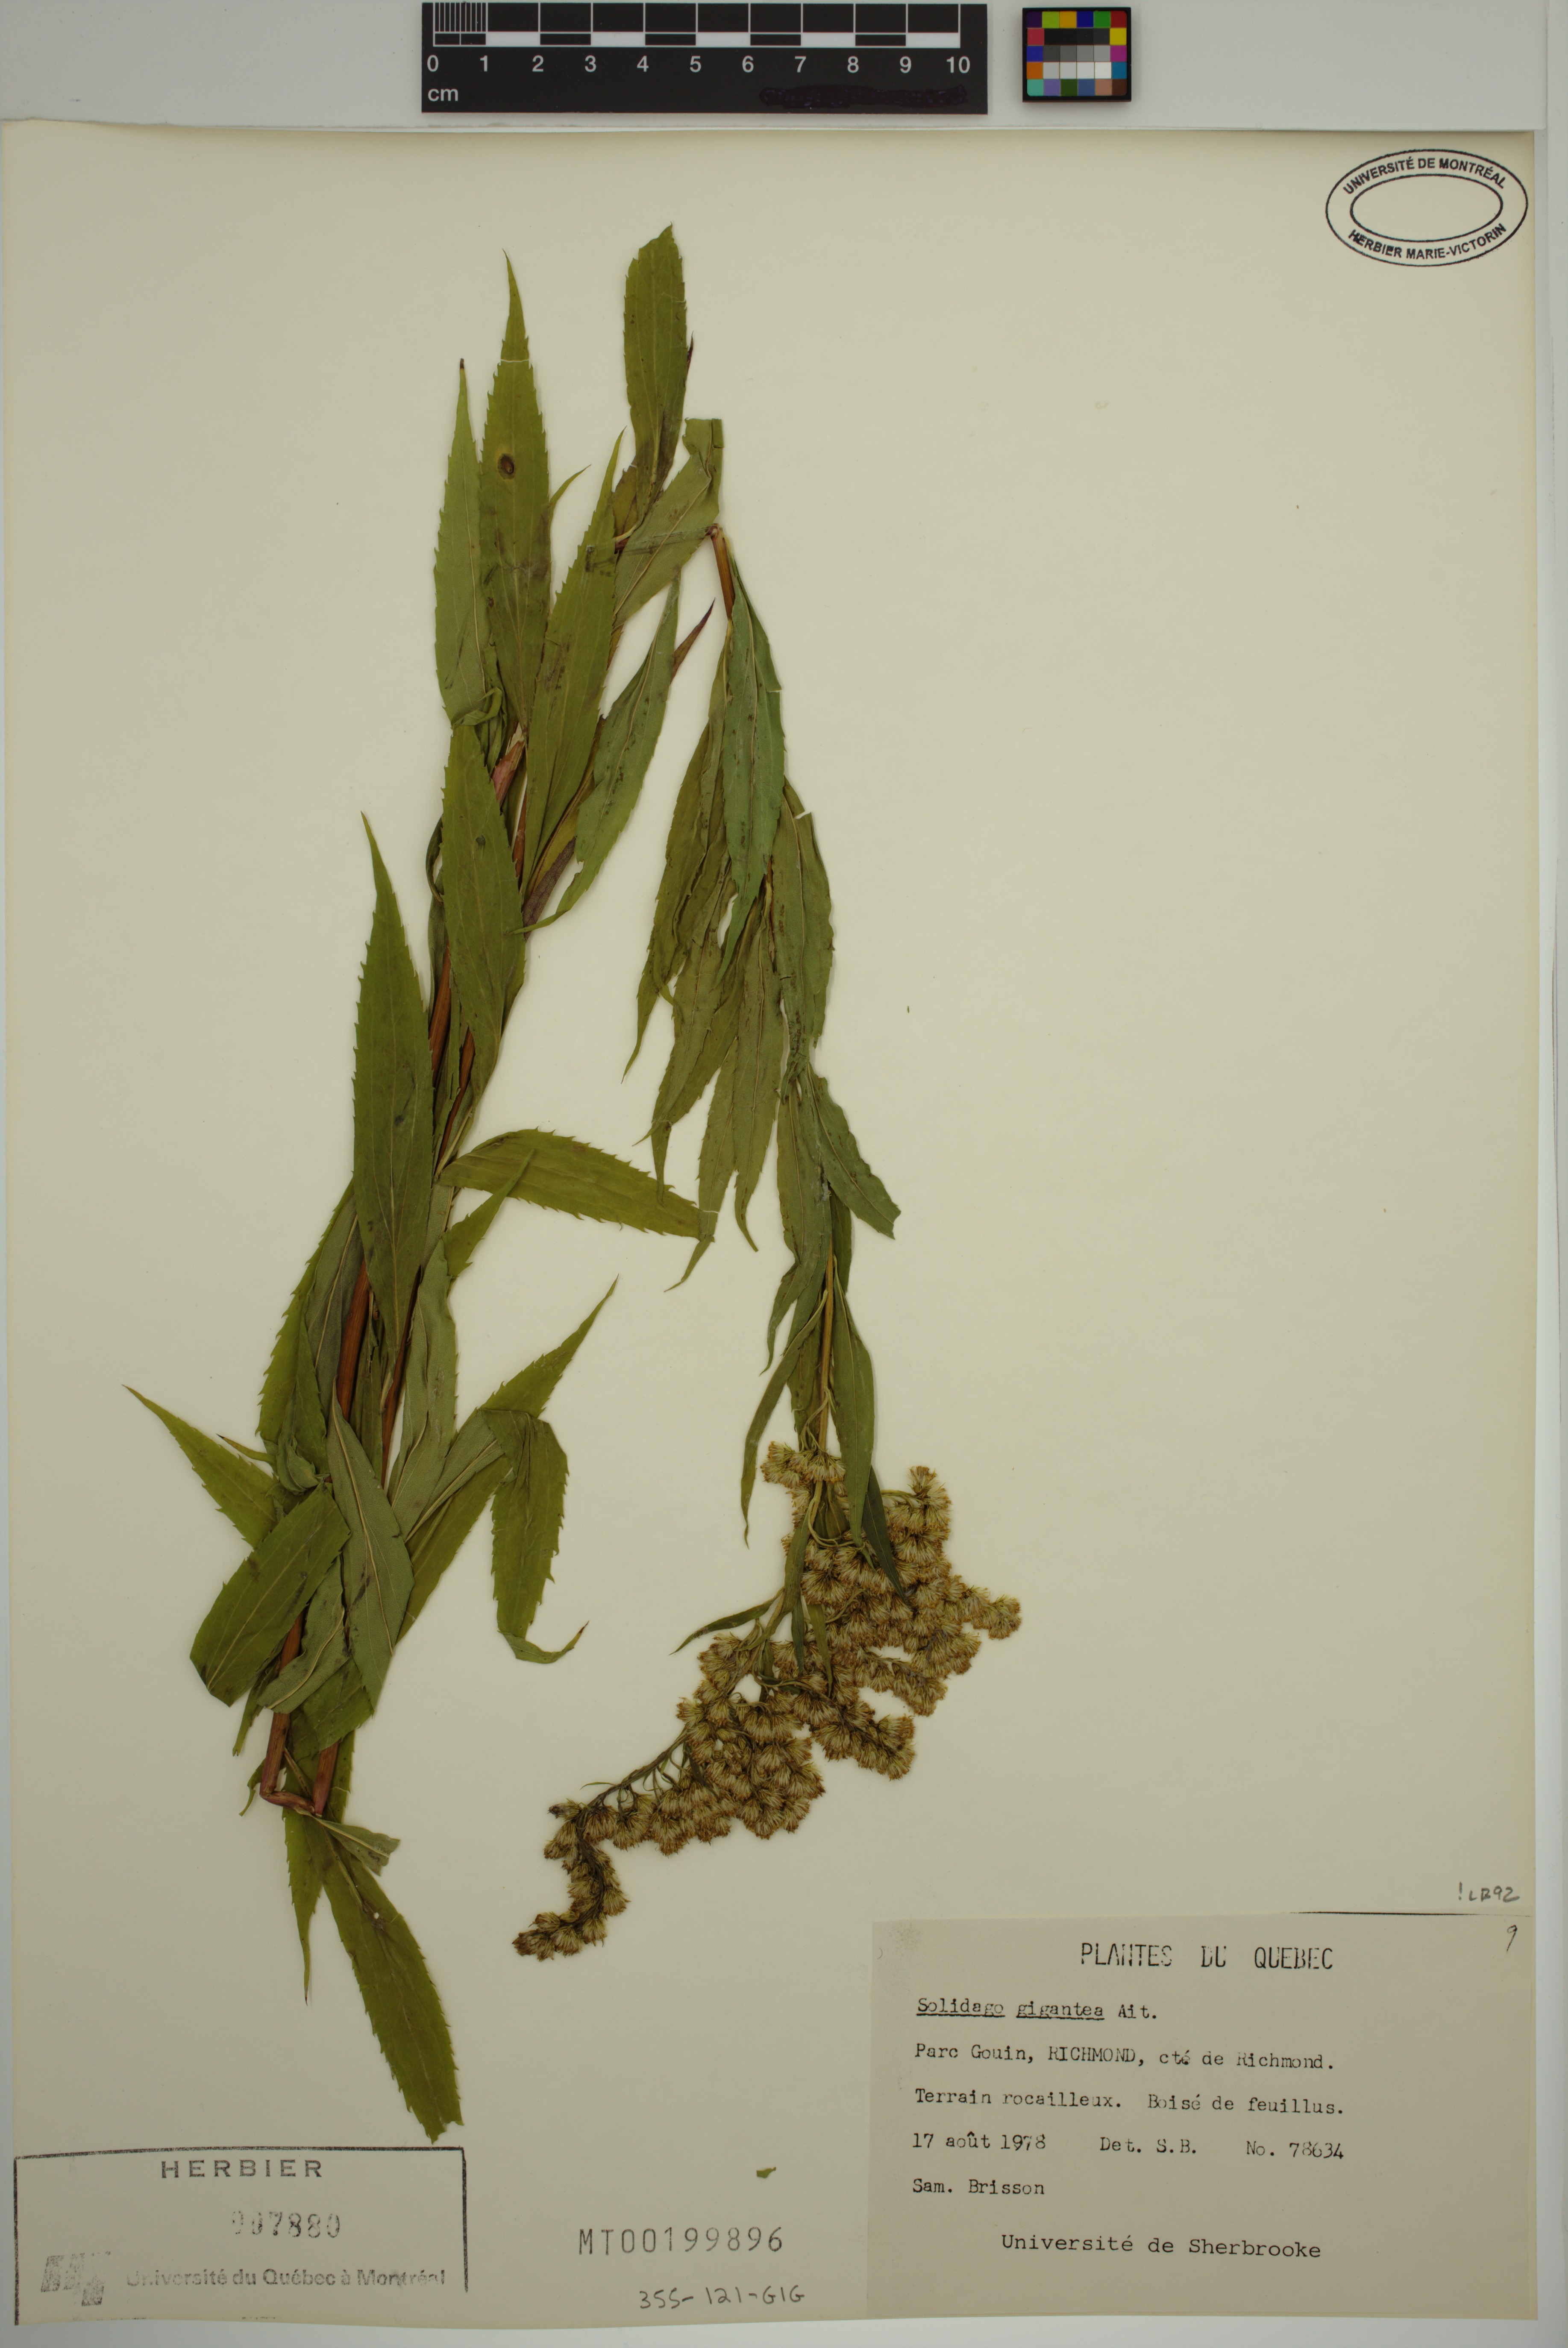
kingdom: Plantae
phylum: Tracheophyta
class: Magnoliopsida
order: Asterales
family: Asteraceae
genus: Solidago
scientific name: Solidago gigantea
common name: Giant goldenrod
